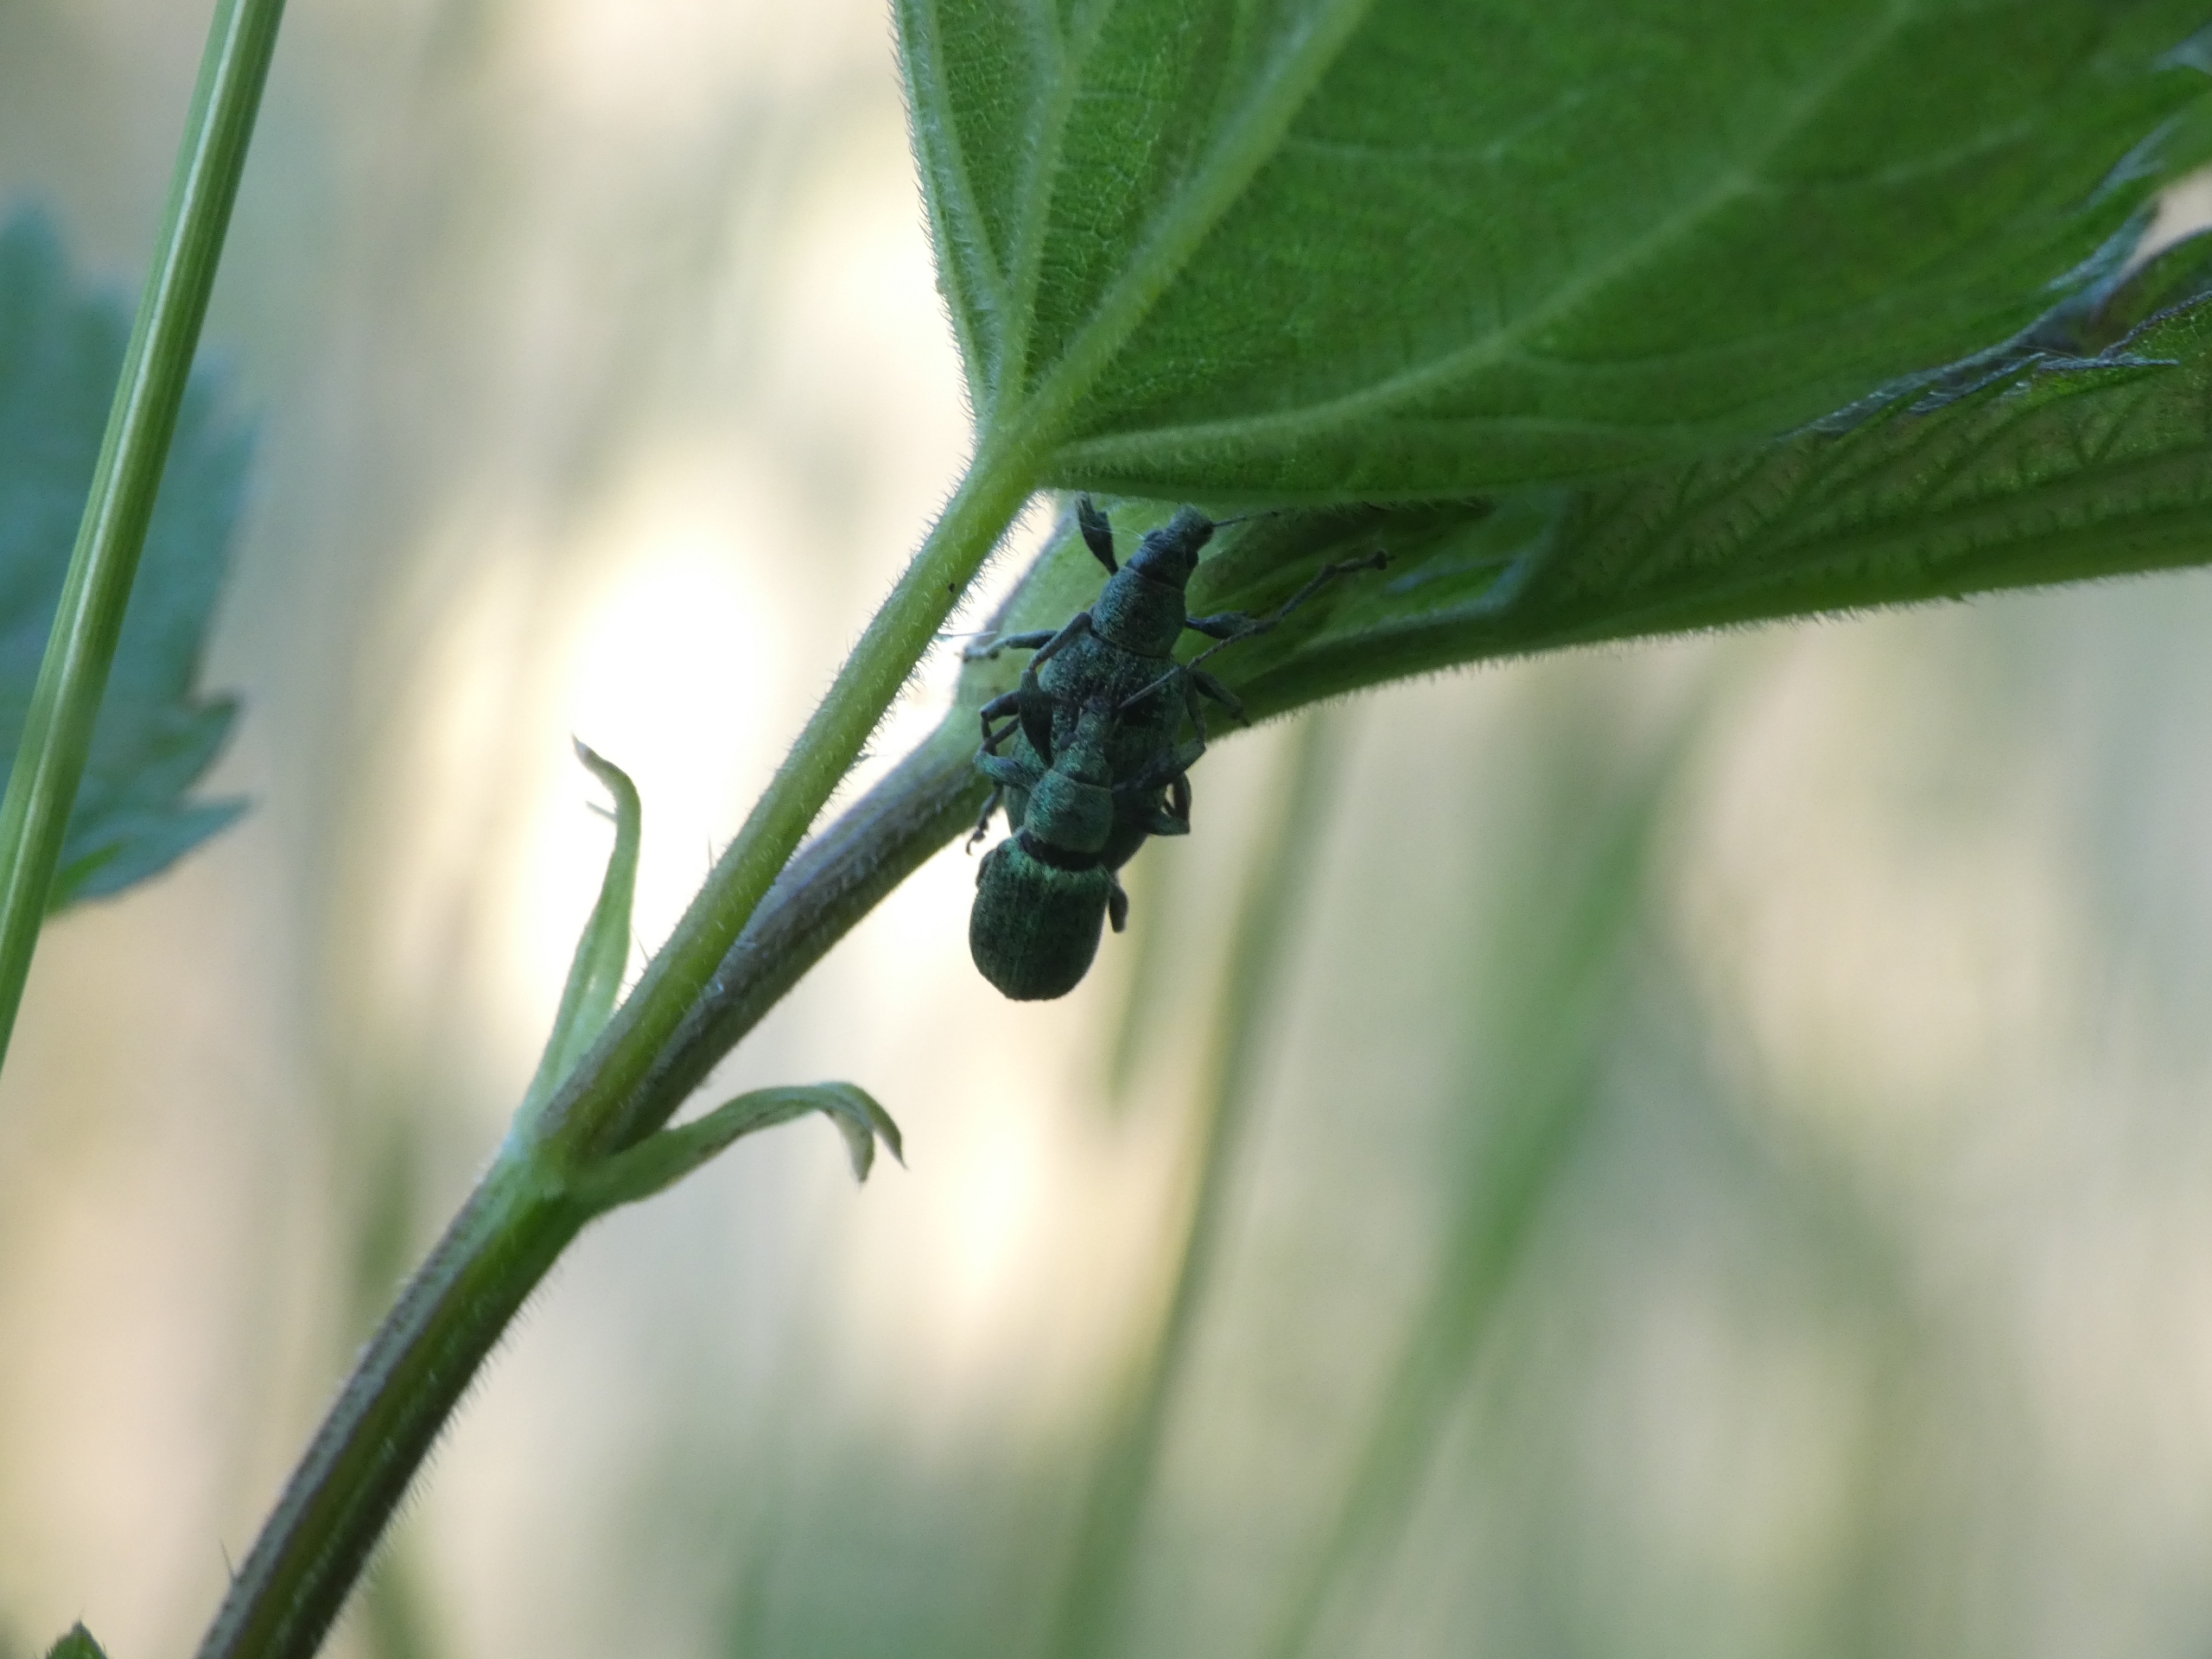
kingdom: Animalia
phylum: Arthropoda
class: Insecta
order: Coleoptera
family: Curculionidae
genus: Phyllobius
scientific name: Phyllobius pomaceus
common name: Nældesnudebille
